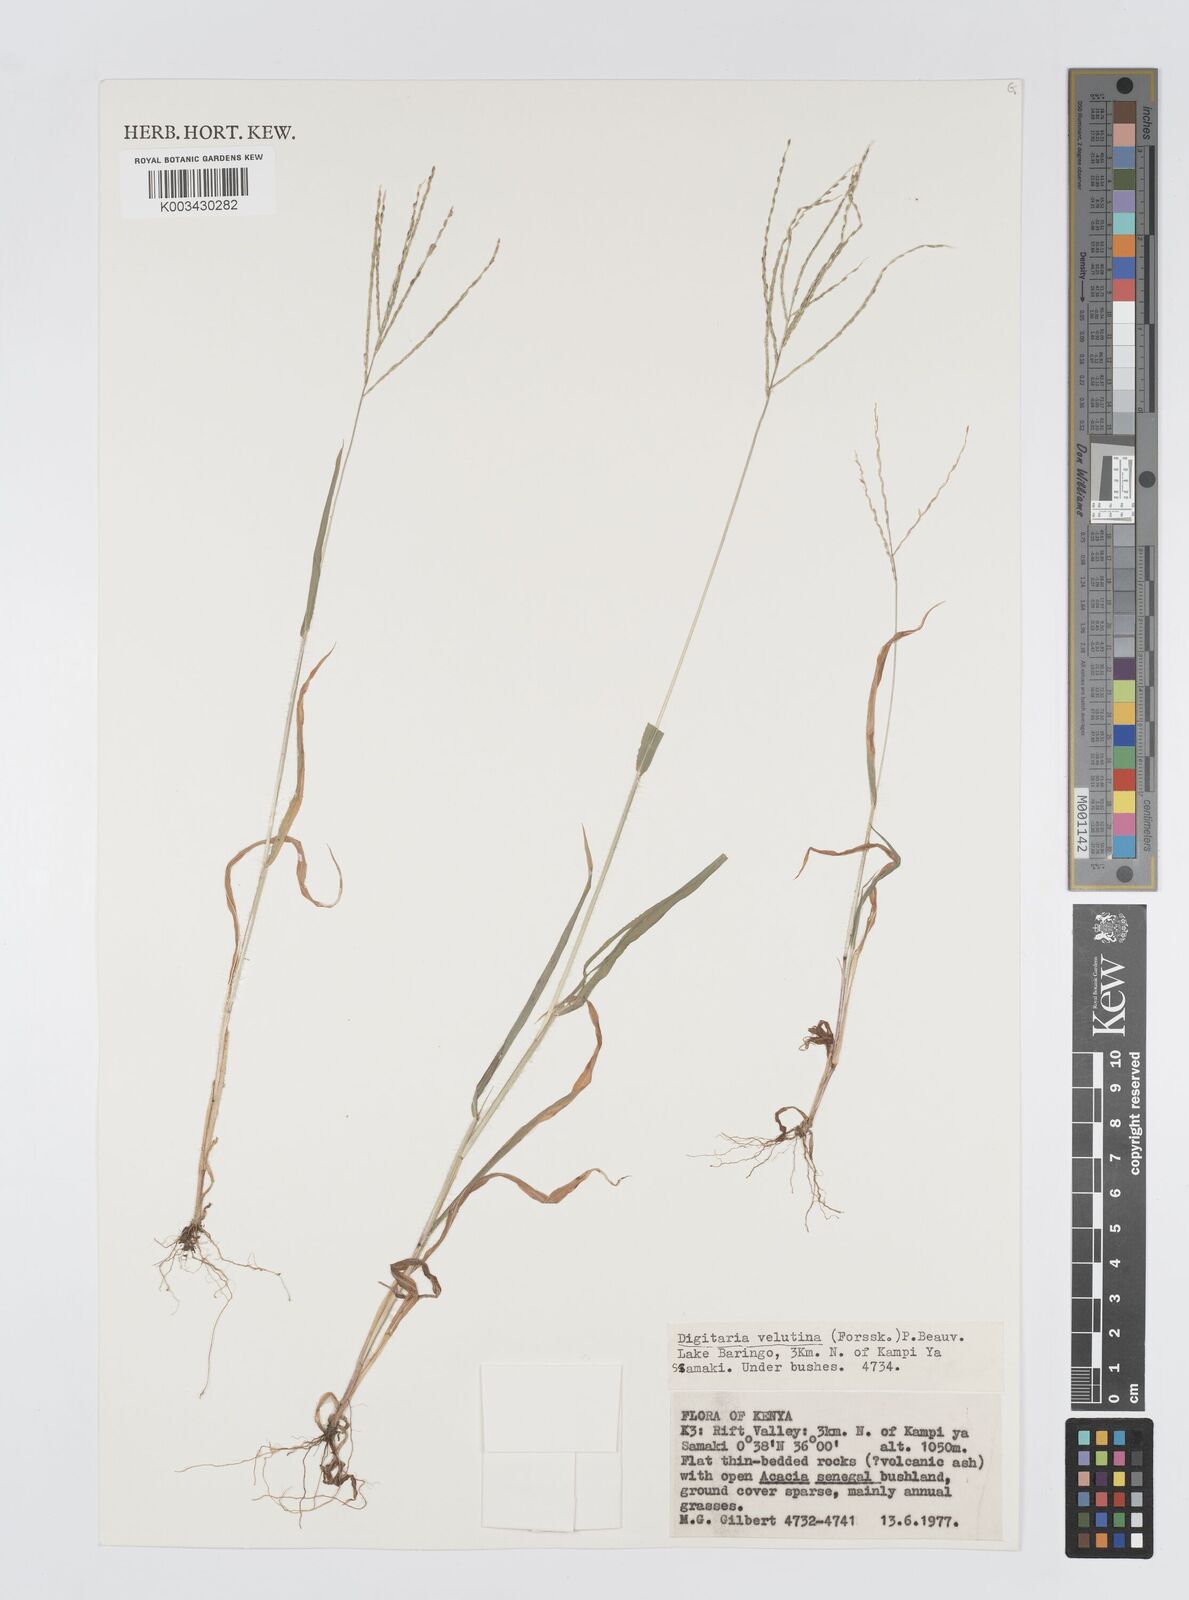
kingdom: Plantae
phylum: Tracheophyta
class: Liliopsida
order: Poales
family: Poaceae
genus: Digitaria
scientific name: Digitaria velutina
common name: Long-plume finger grass
